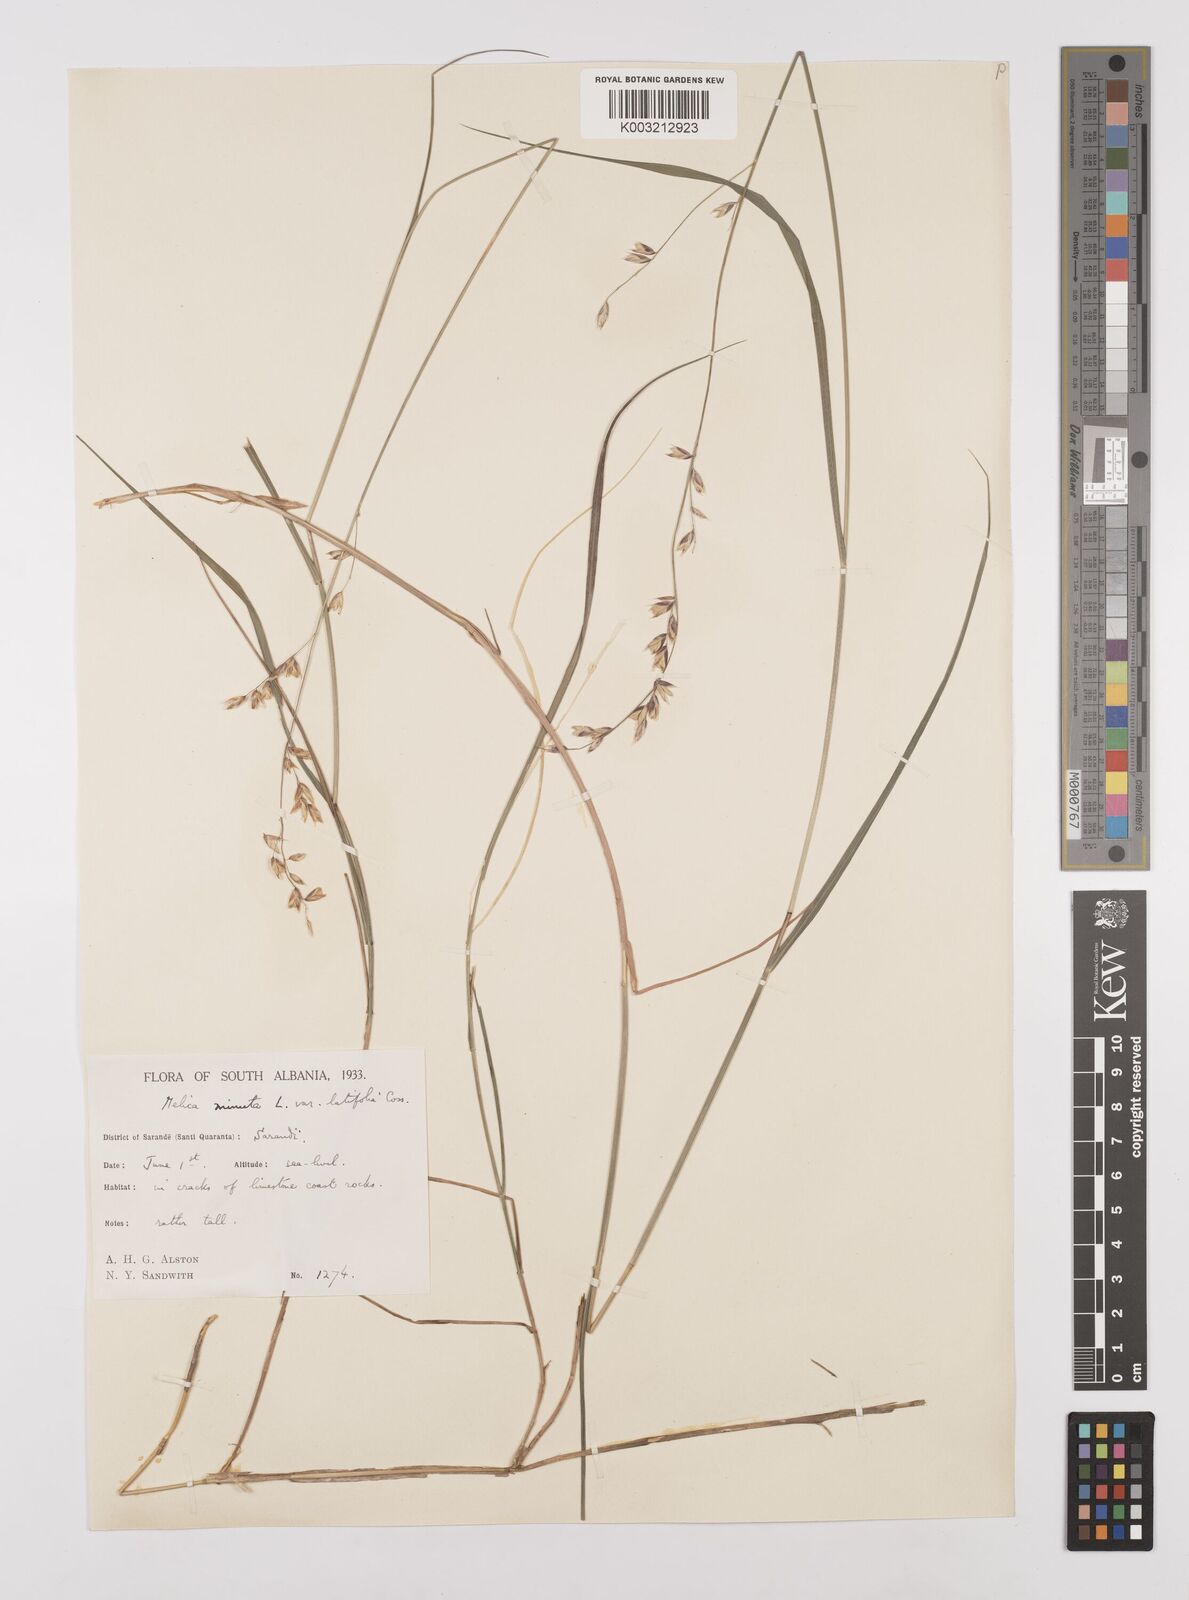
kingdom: Plantae
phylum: Tracheophyta
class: Liliopsida
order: Poales
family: Poaceae
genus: Melica
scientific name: Melica minuta
